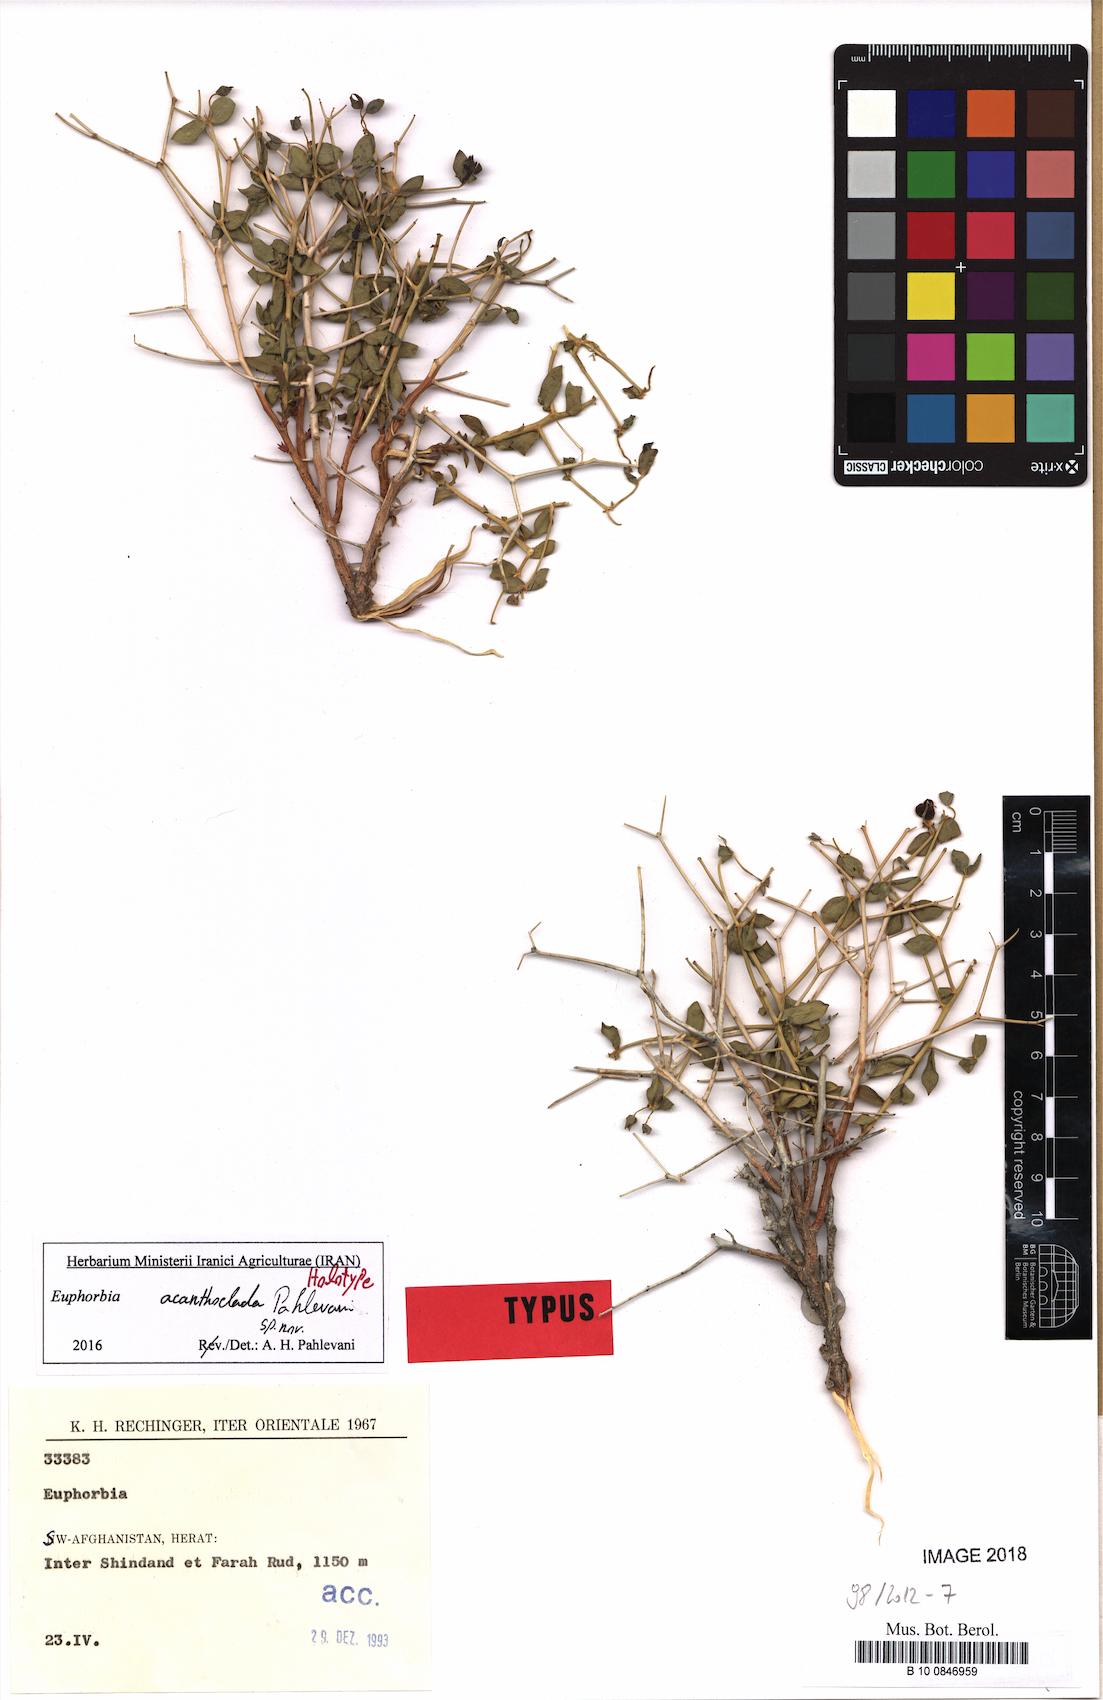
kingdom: Plantae
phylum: Tracheophyta
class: Magnoliopsida
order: Malpighiales
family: Euphorbiaceae
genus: Euphorbia
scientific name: Euphorbia acanthoclada
